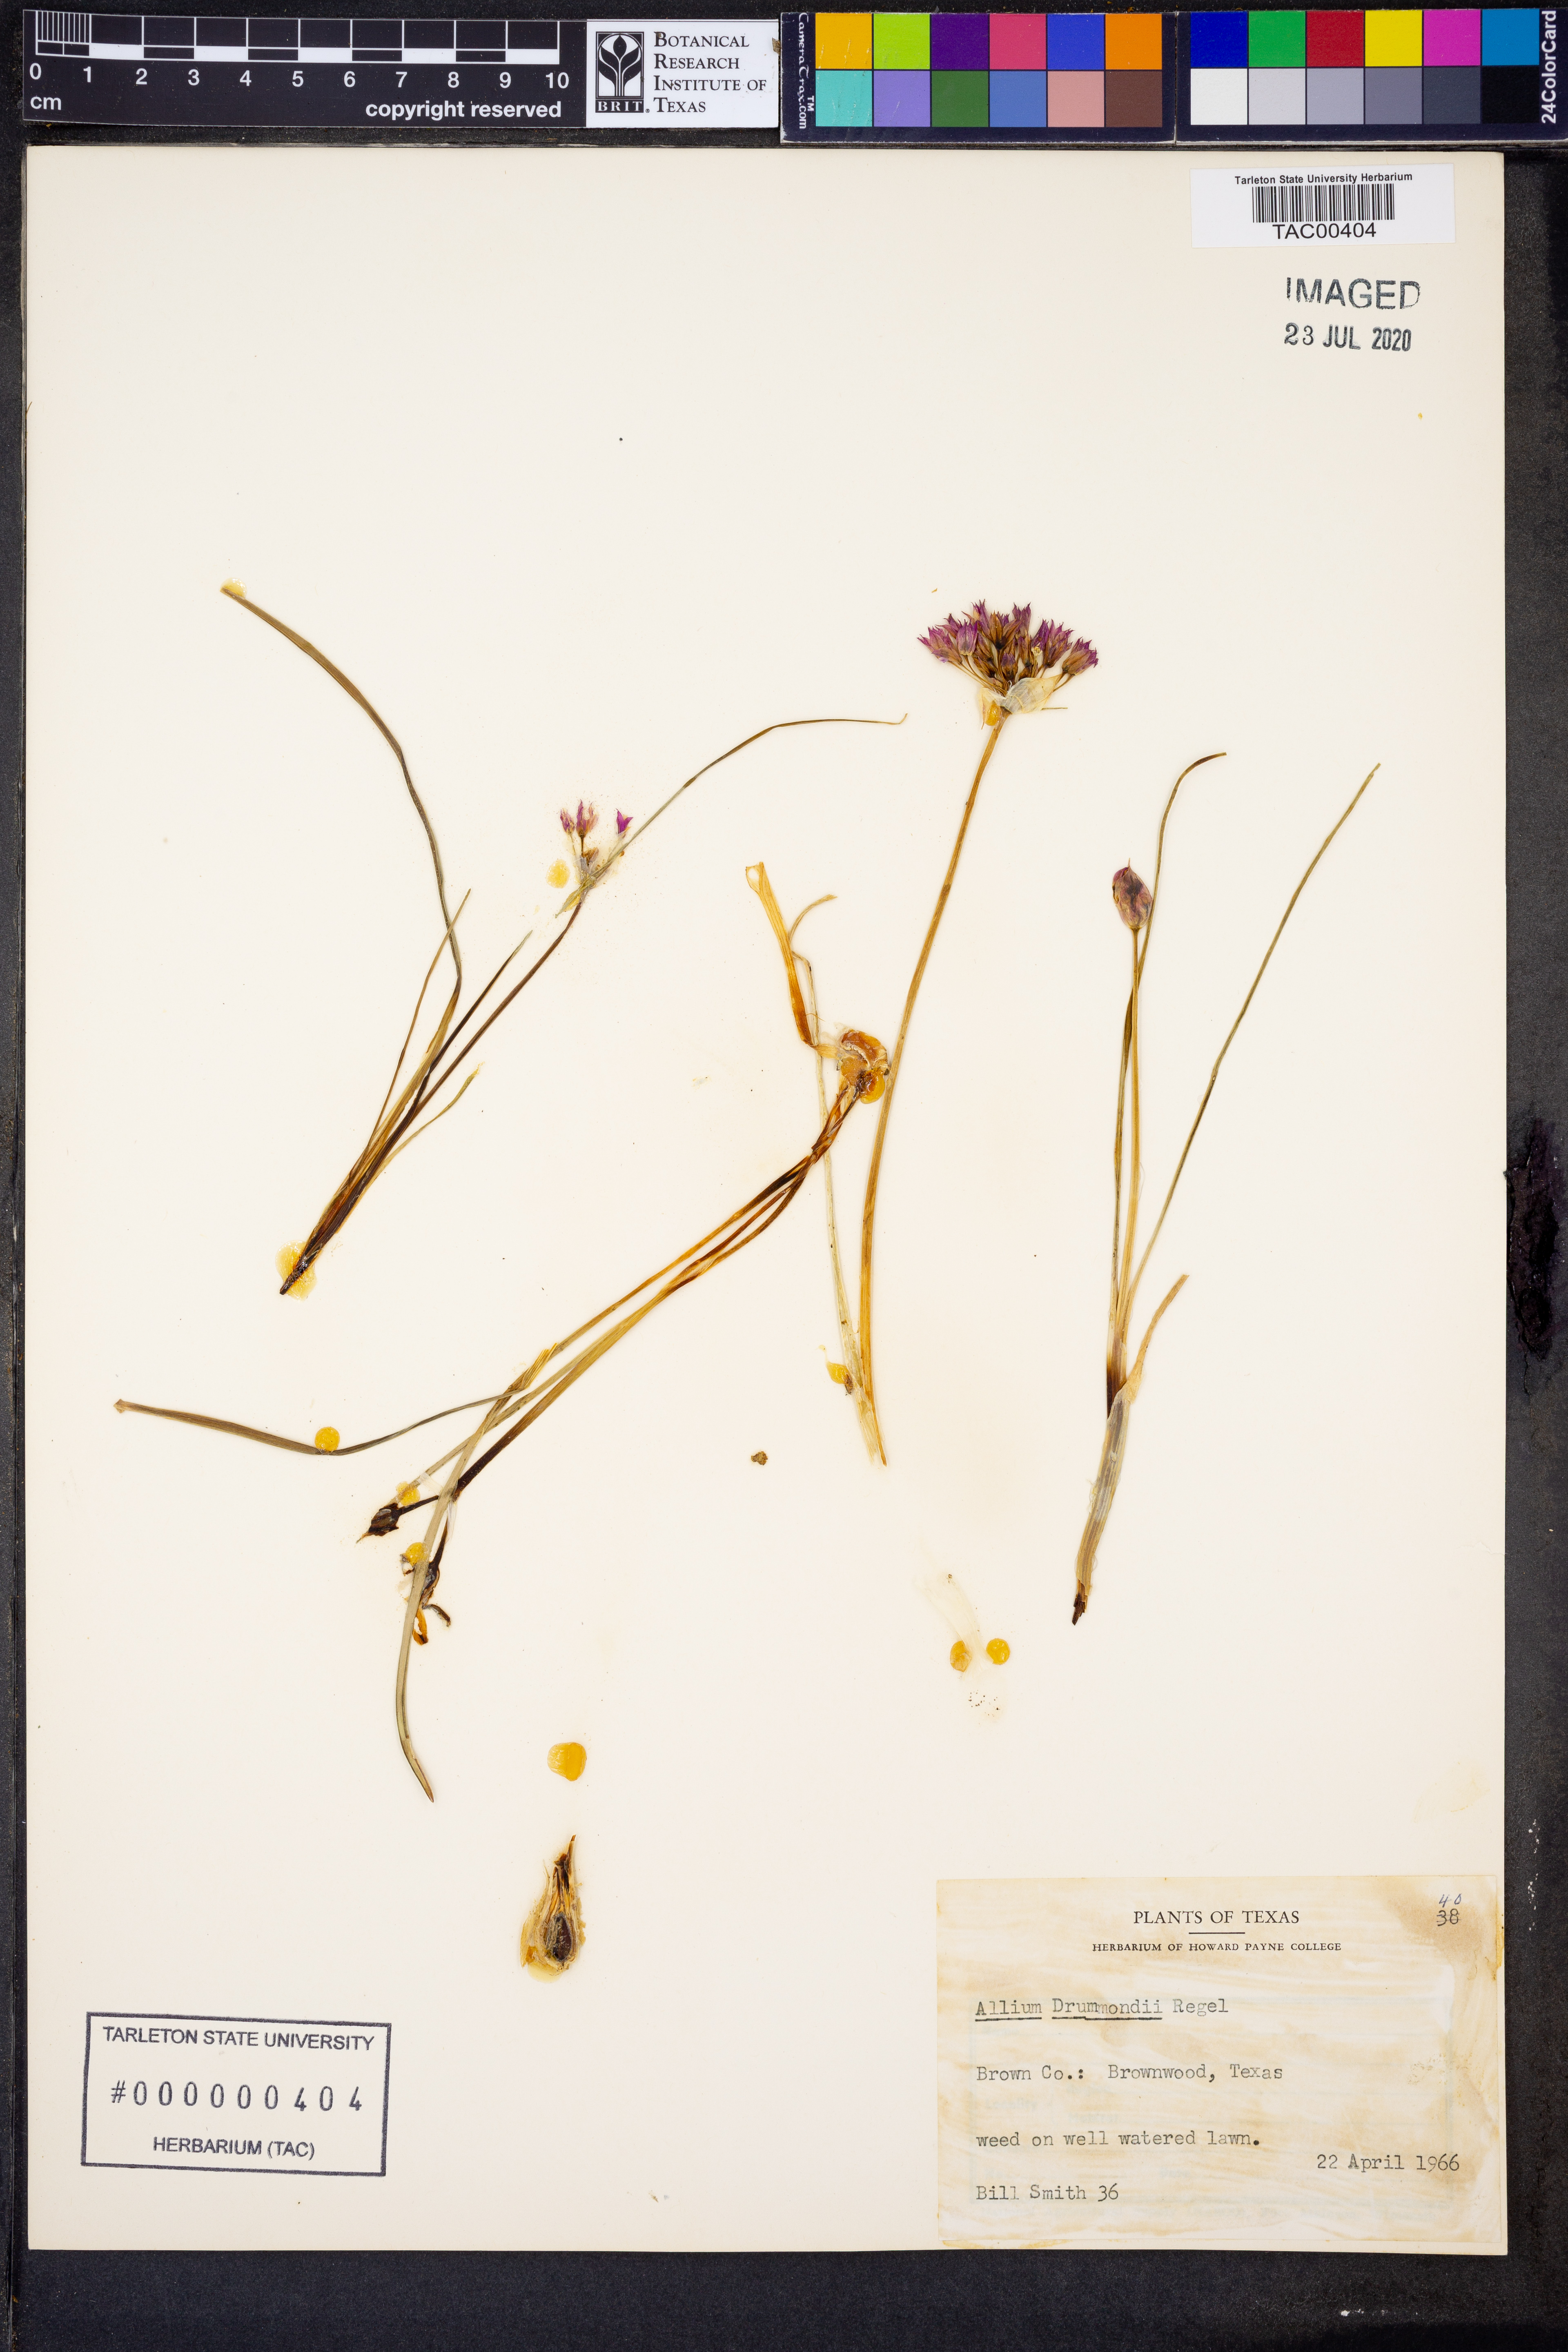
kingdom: Plantae
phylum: Tracheophyta
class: Liliopsida
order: Asparagales
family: Amaryllidaceae
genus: Allium
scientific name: Allium drummondii
